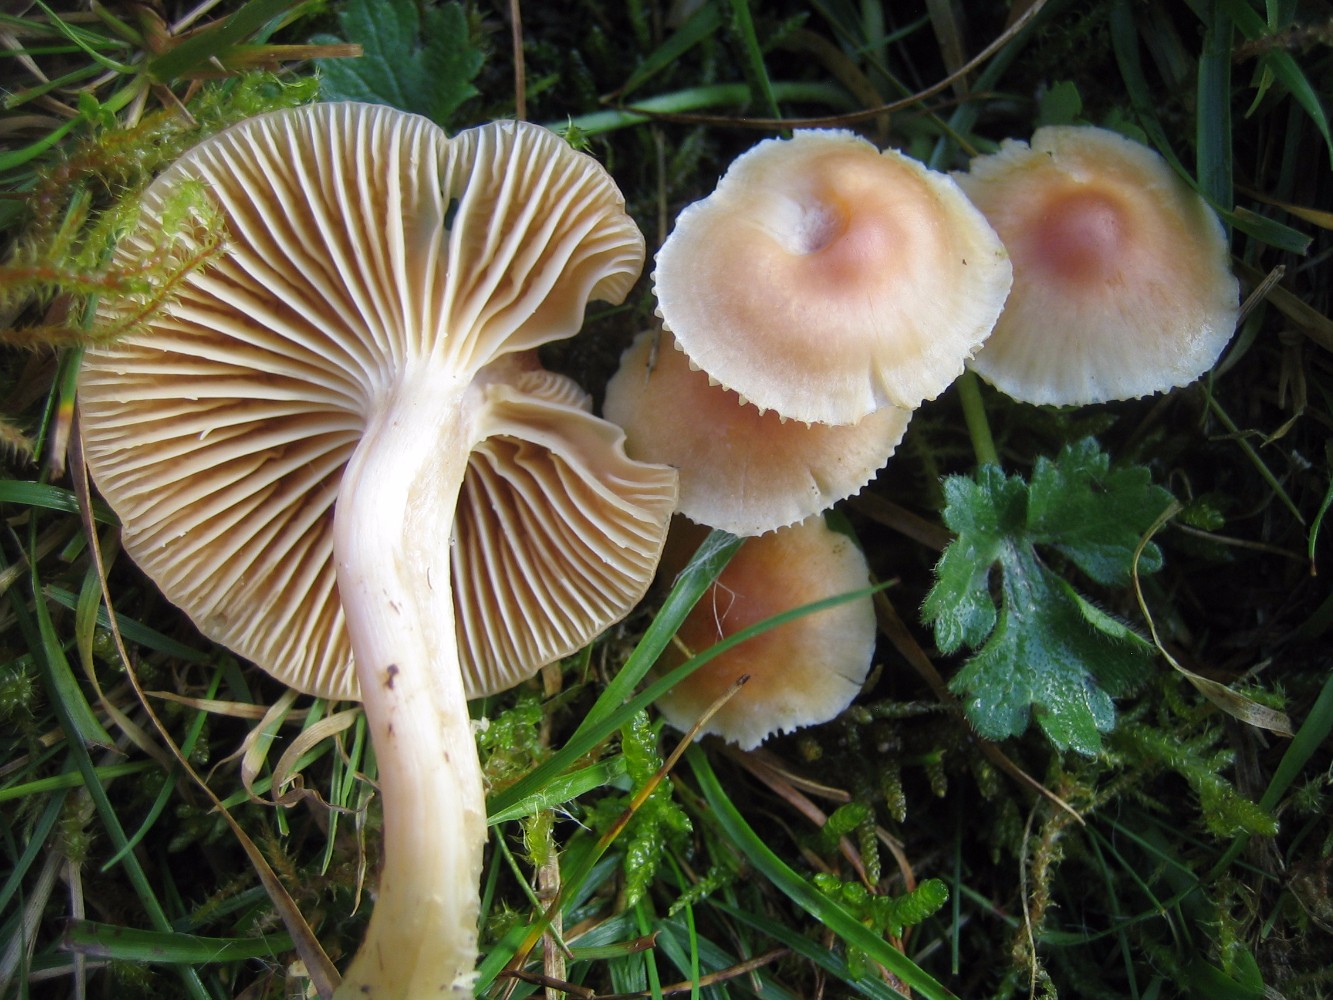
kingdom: Fungi
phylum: Basidiomycota
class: Agaricomycetes
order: Agaricales
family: Hygrophoraceae
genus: Cuphophyllus
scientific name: Cuphophyllus pratensis
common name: eng-vokshat
